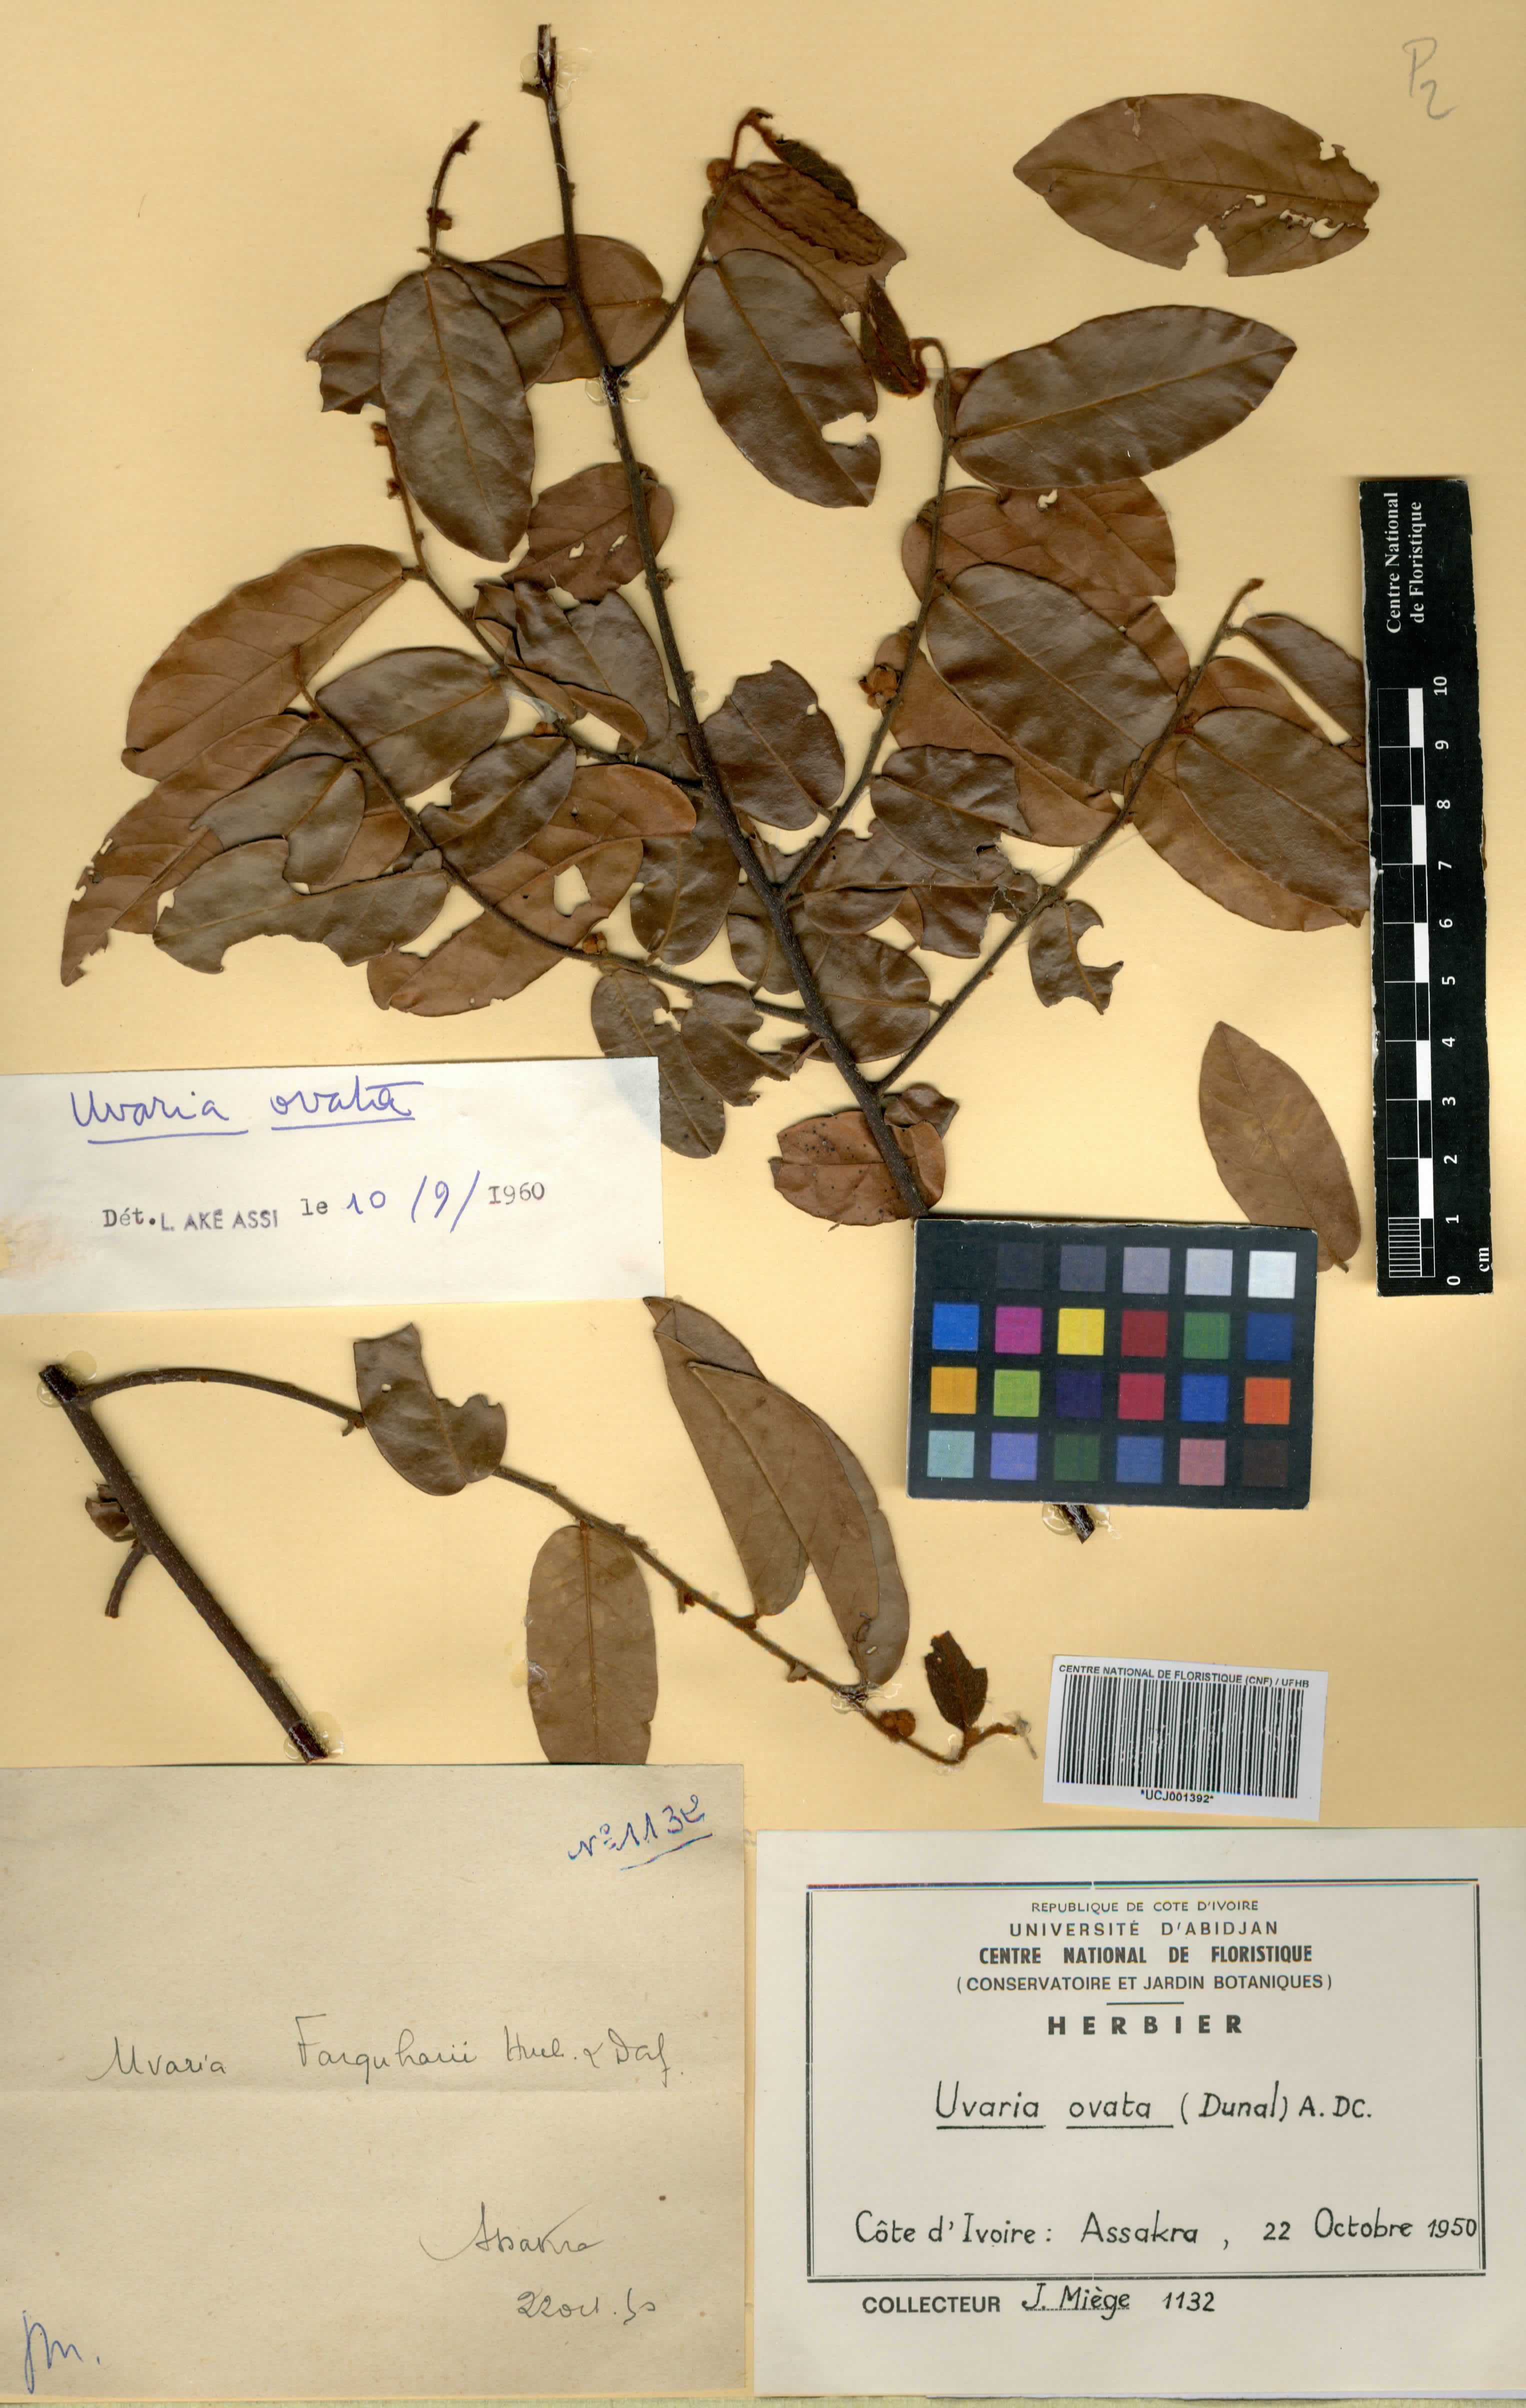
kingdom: Plantae
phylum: Tracheophyta
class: Magnoliopsida
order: Magnoliales
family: Annonaceae
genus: Uvaria
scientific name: Uvaria ovata
